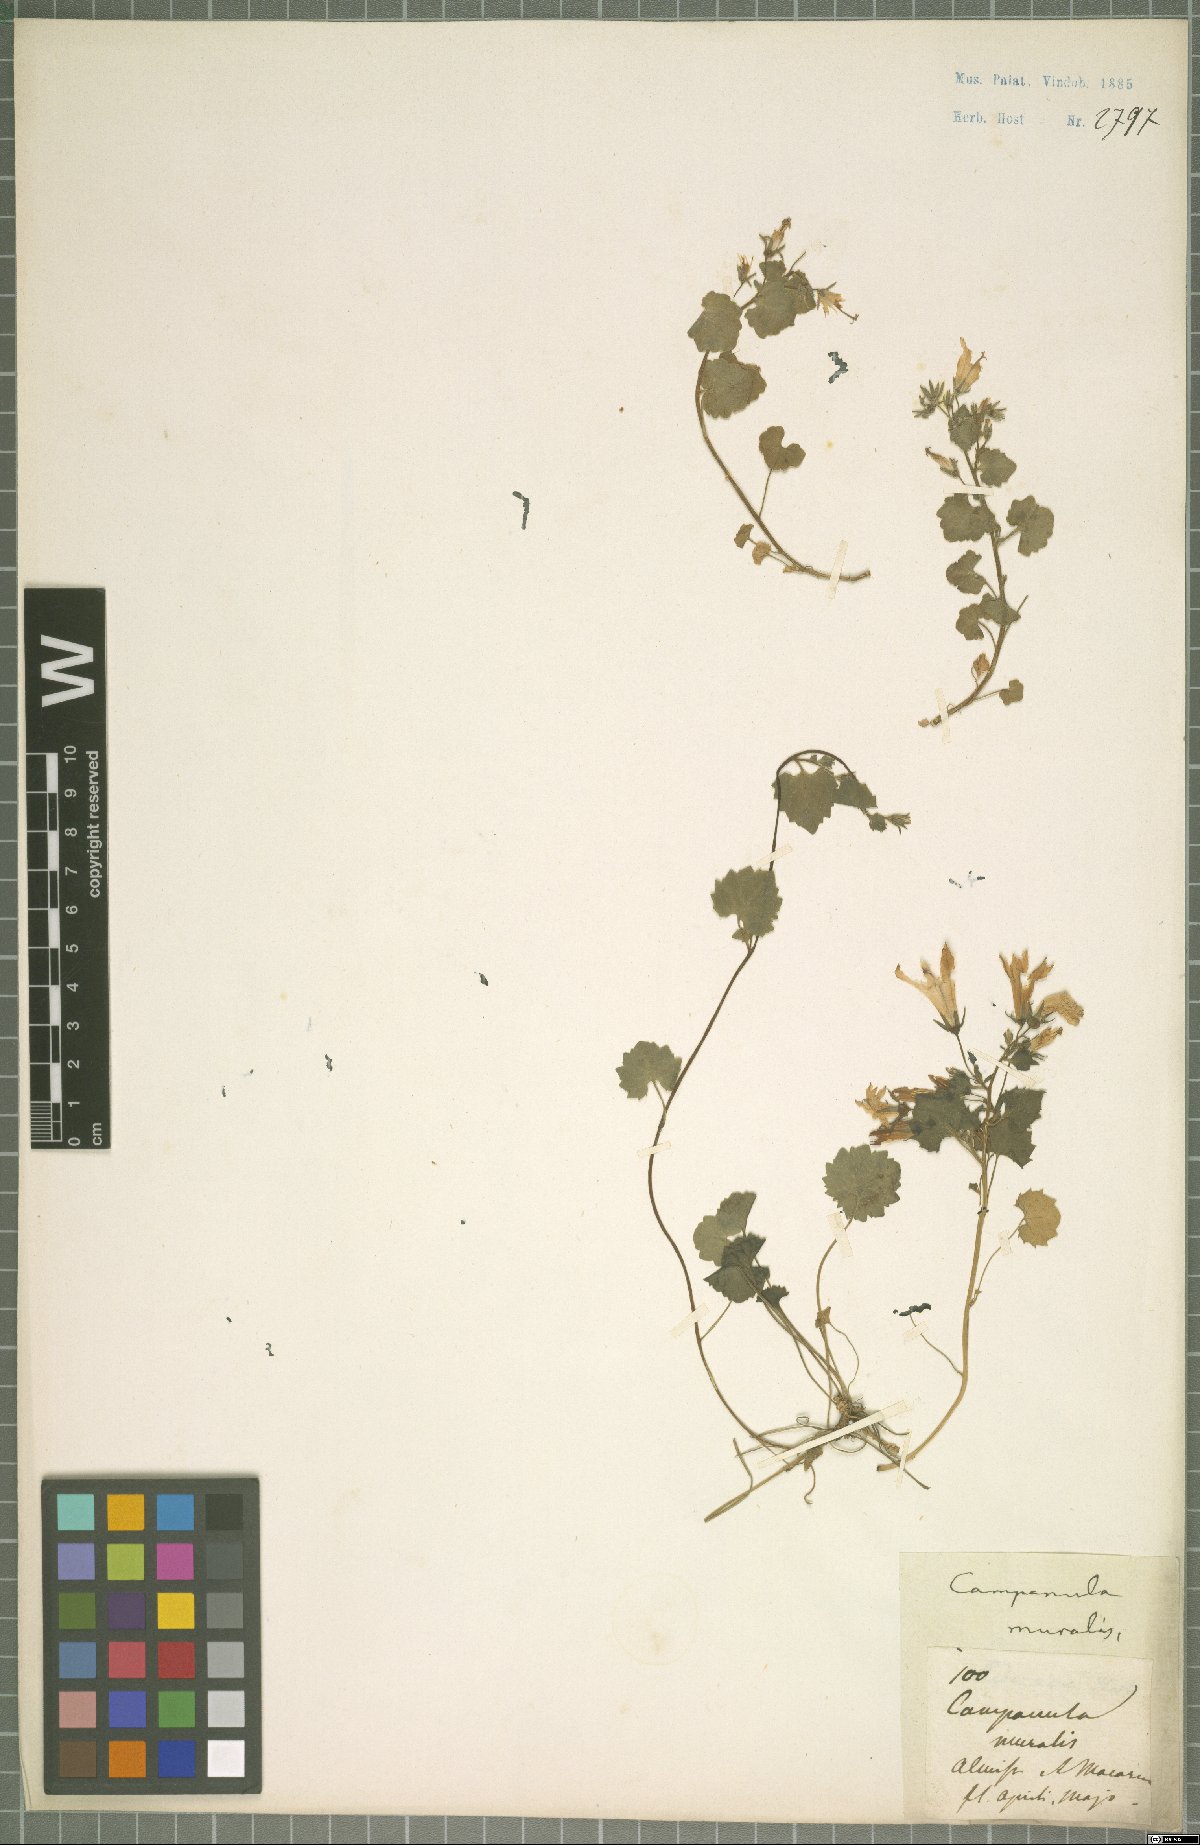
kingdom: Plantae
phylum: Tracheophyta
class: Magnoliopsida
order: Asterales
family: Campanulaceae
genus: Campanula
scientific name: Campanula portenschlagiana
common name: Adria bellflower
